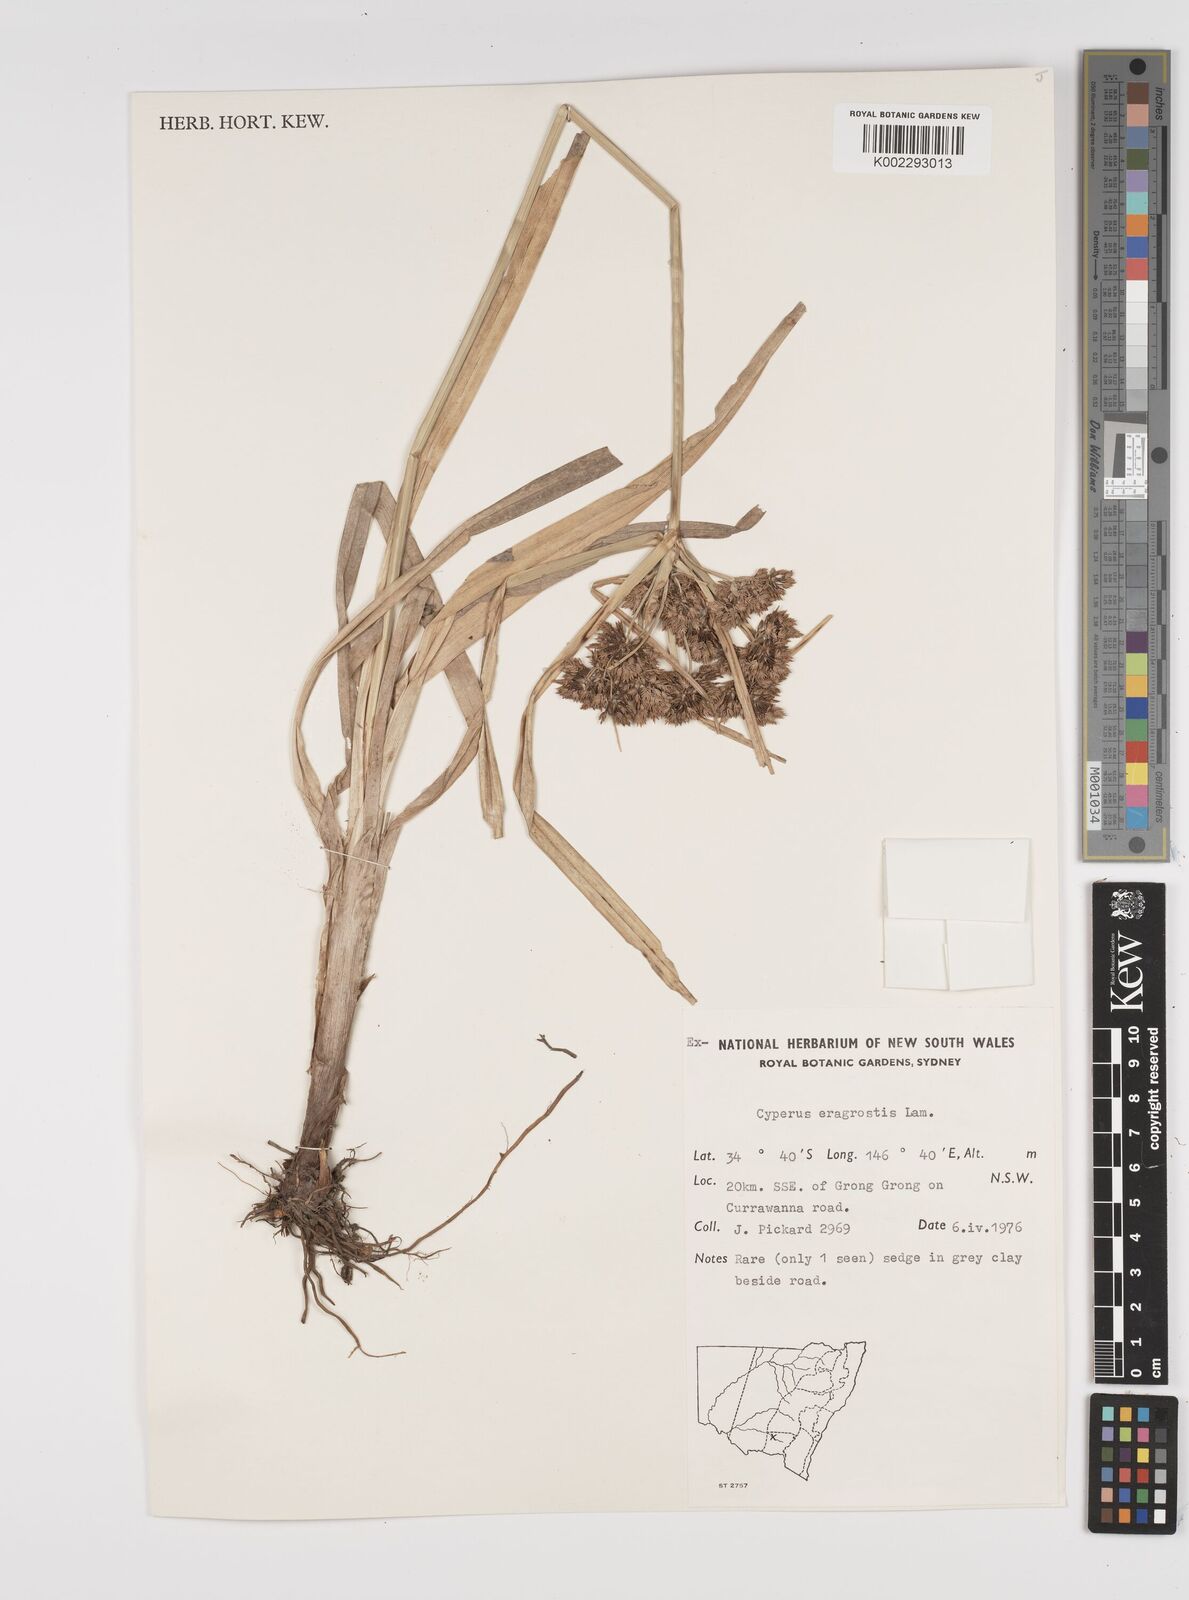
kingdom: Plantae
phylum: Tracheophyta
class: Liliopsida
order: Poales
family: Cyperaceae
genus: Cyperus
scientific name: Cyperus eragrostis
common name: Tall flatsedge
